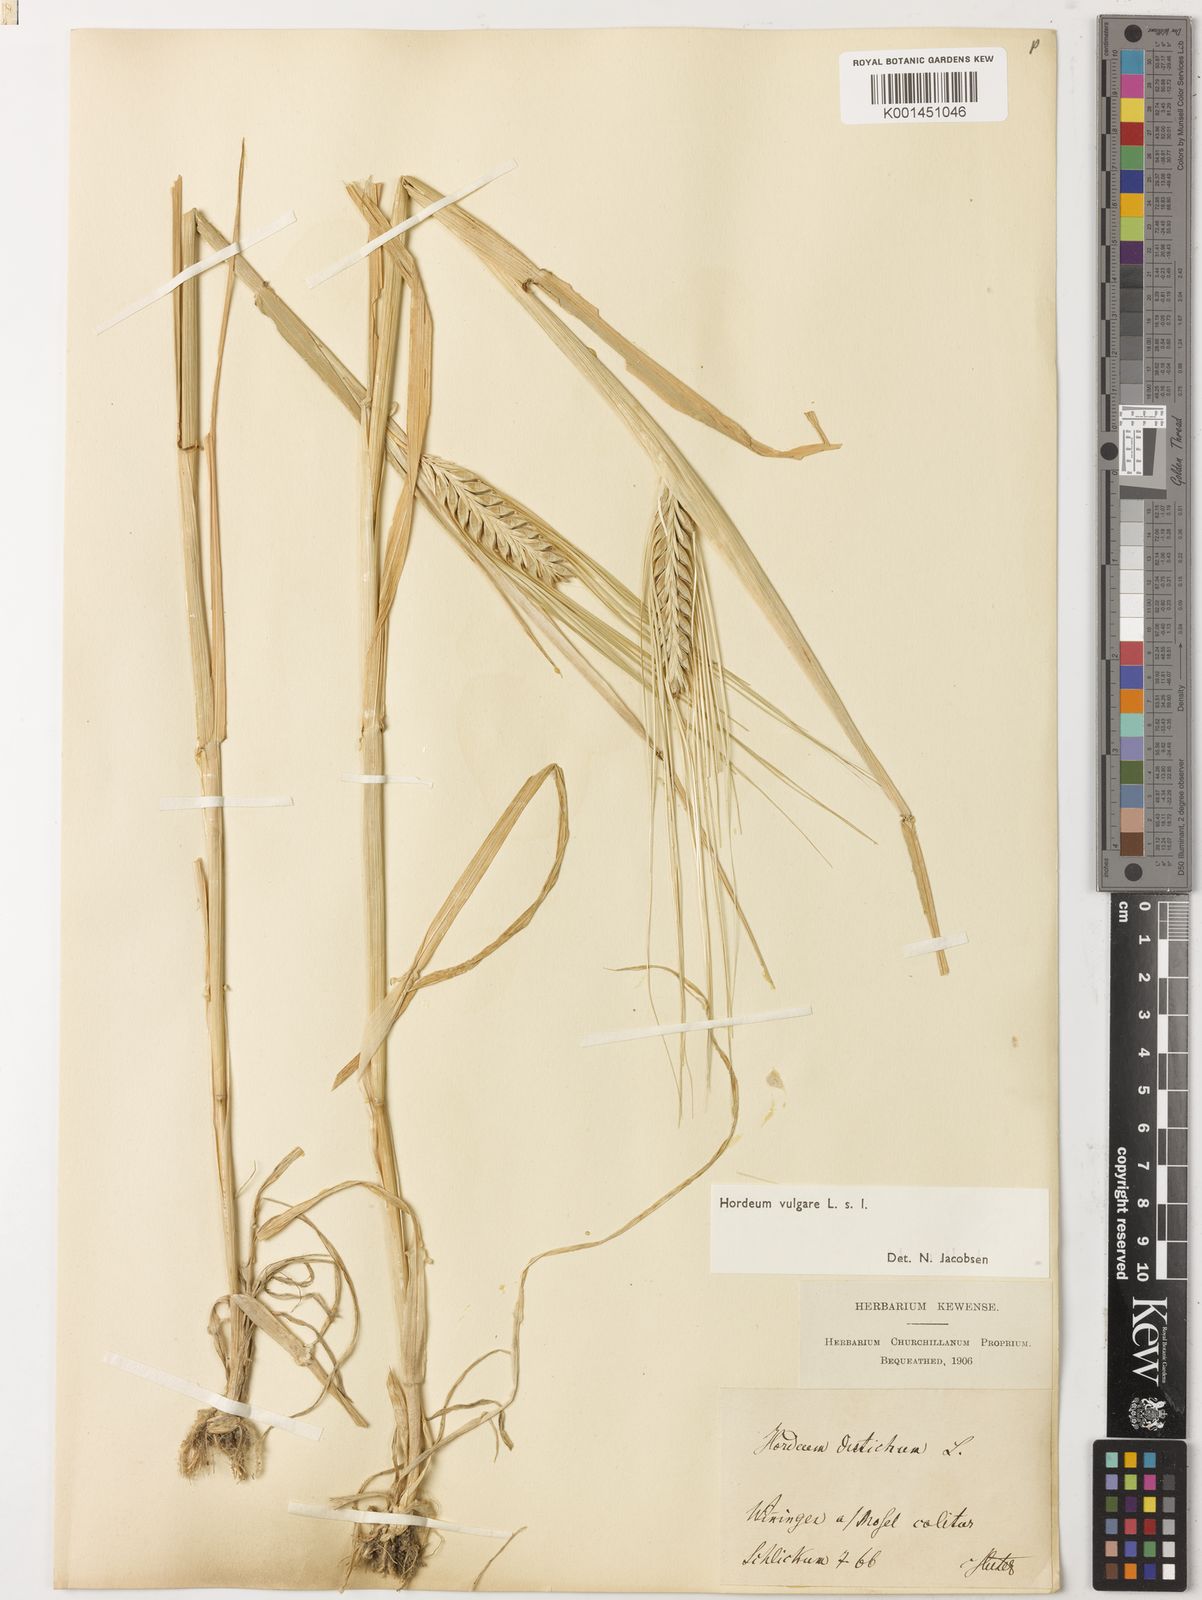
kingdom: Plantae
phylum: Tracheophyta
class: Liliopsida
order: Poales
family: Poaceae
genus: Hordeum
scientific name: Hordeum vulgare
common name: Common barley
